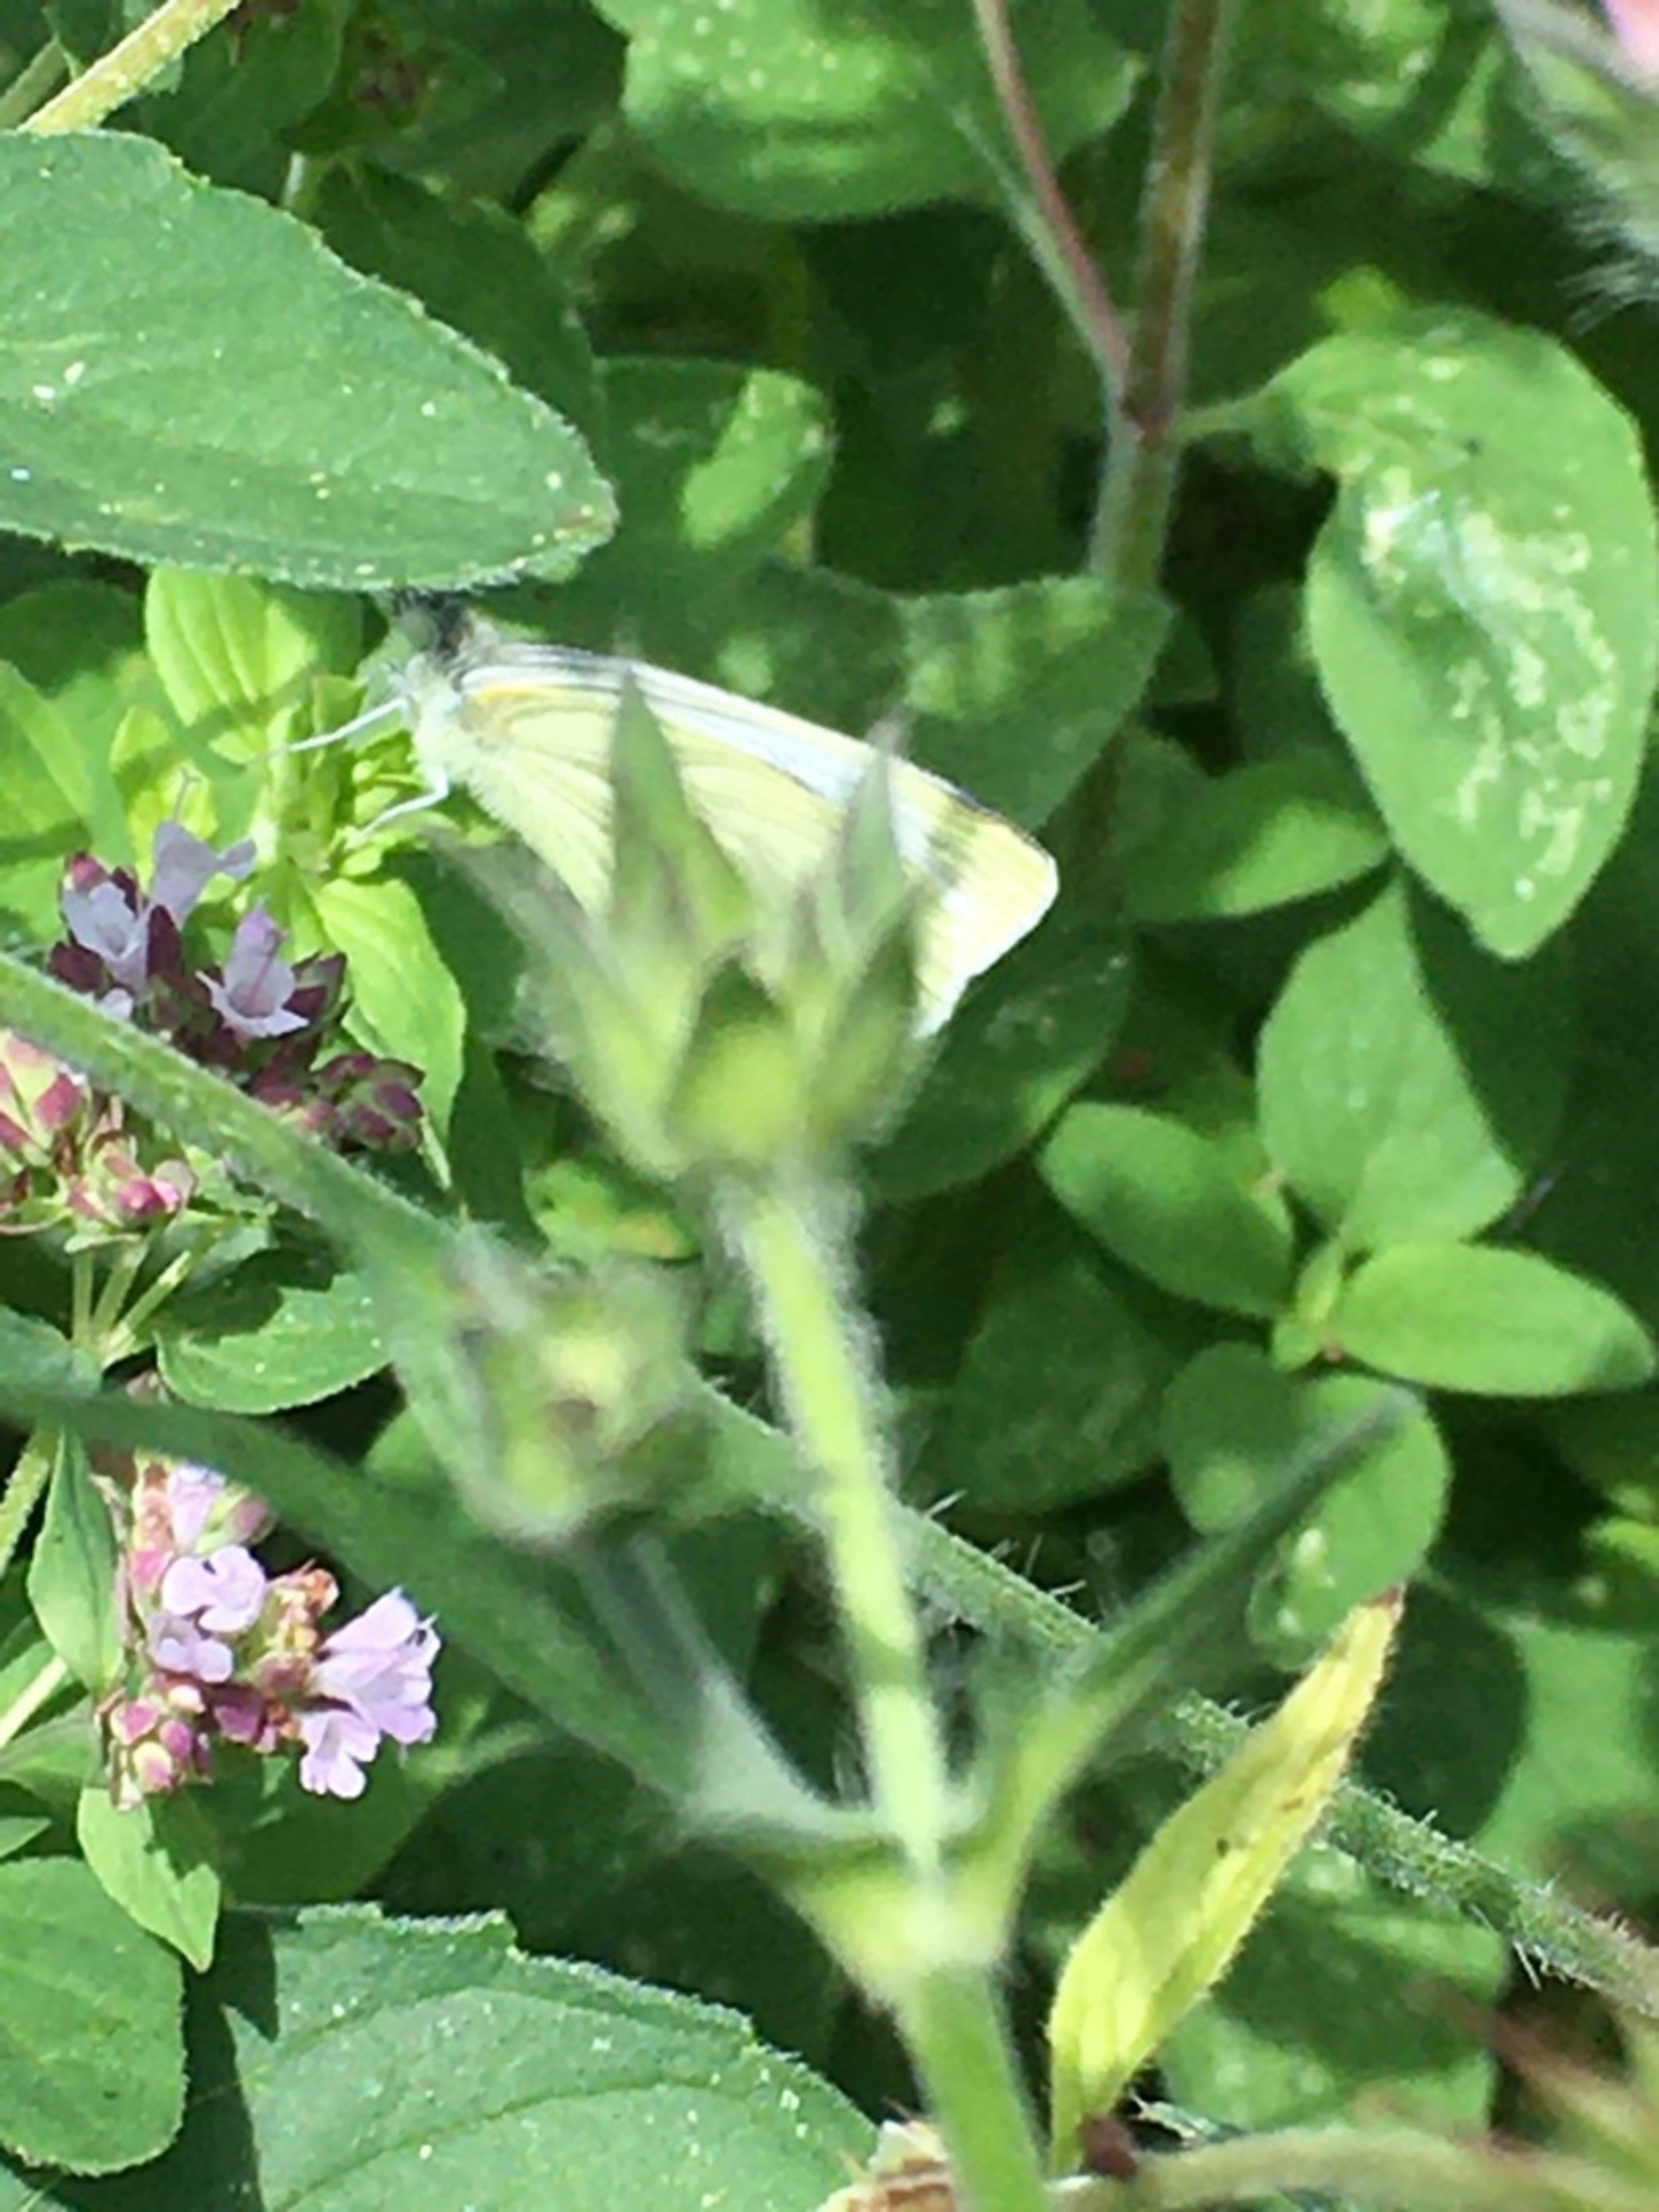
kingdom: Animalia
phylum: Arthropoda
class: Insecta
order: Lepidoptera
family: Pieridae
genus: Pieris
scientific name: Pieris napi
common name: Grønåret kålsommerfugl
